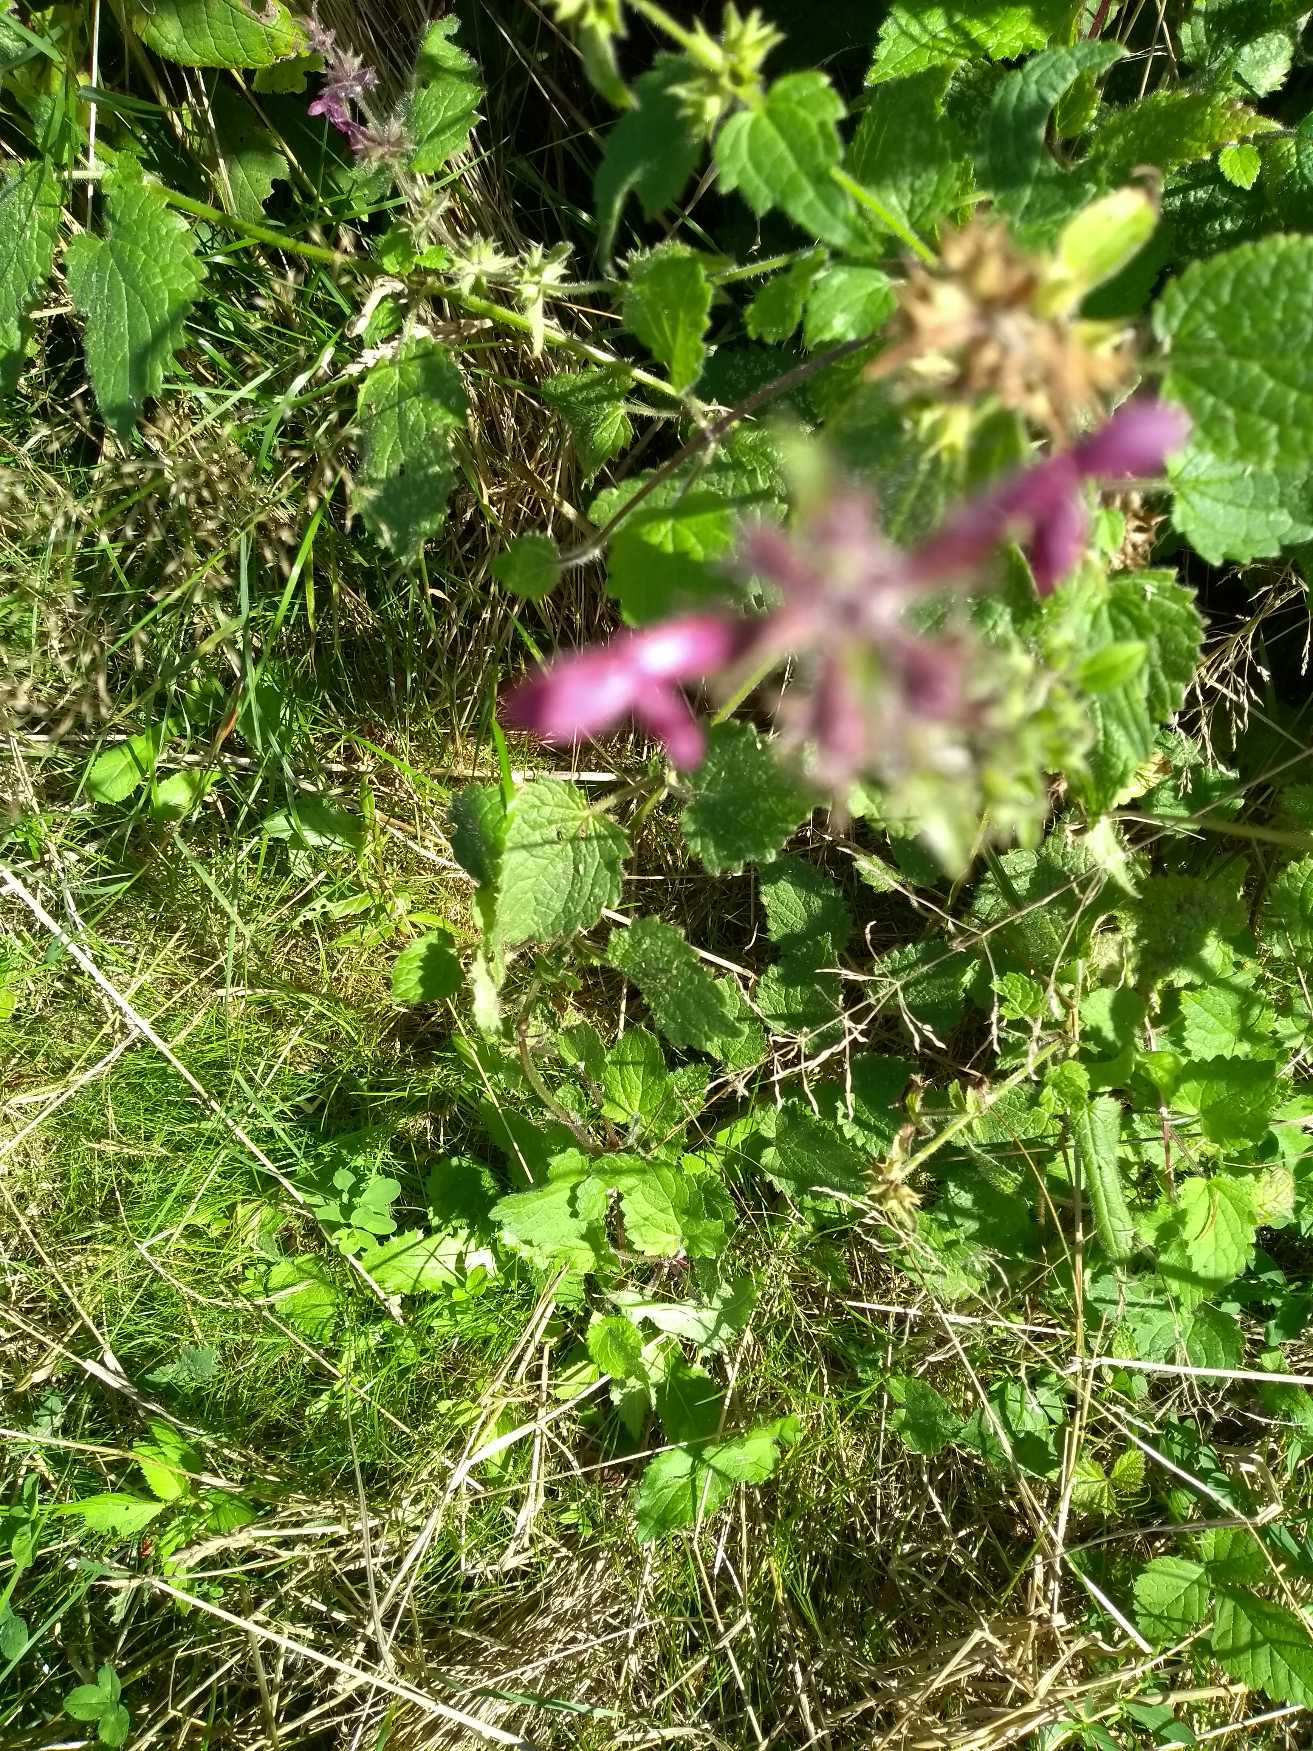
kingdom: Plantae
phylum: Tracheophyta
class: Magnoliopsida
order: Lamiales
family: Lamiaceae
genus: Stachys
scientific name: Stachys sylvatica
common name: Skov-galtetand
